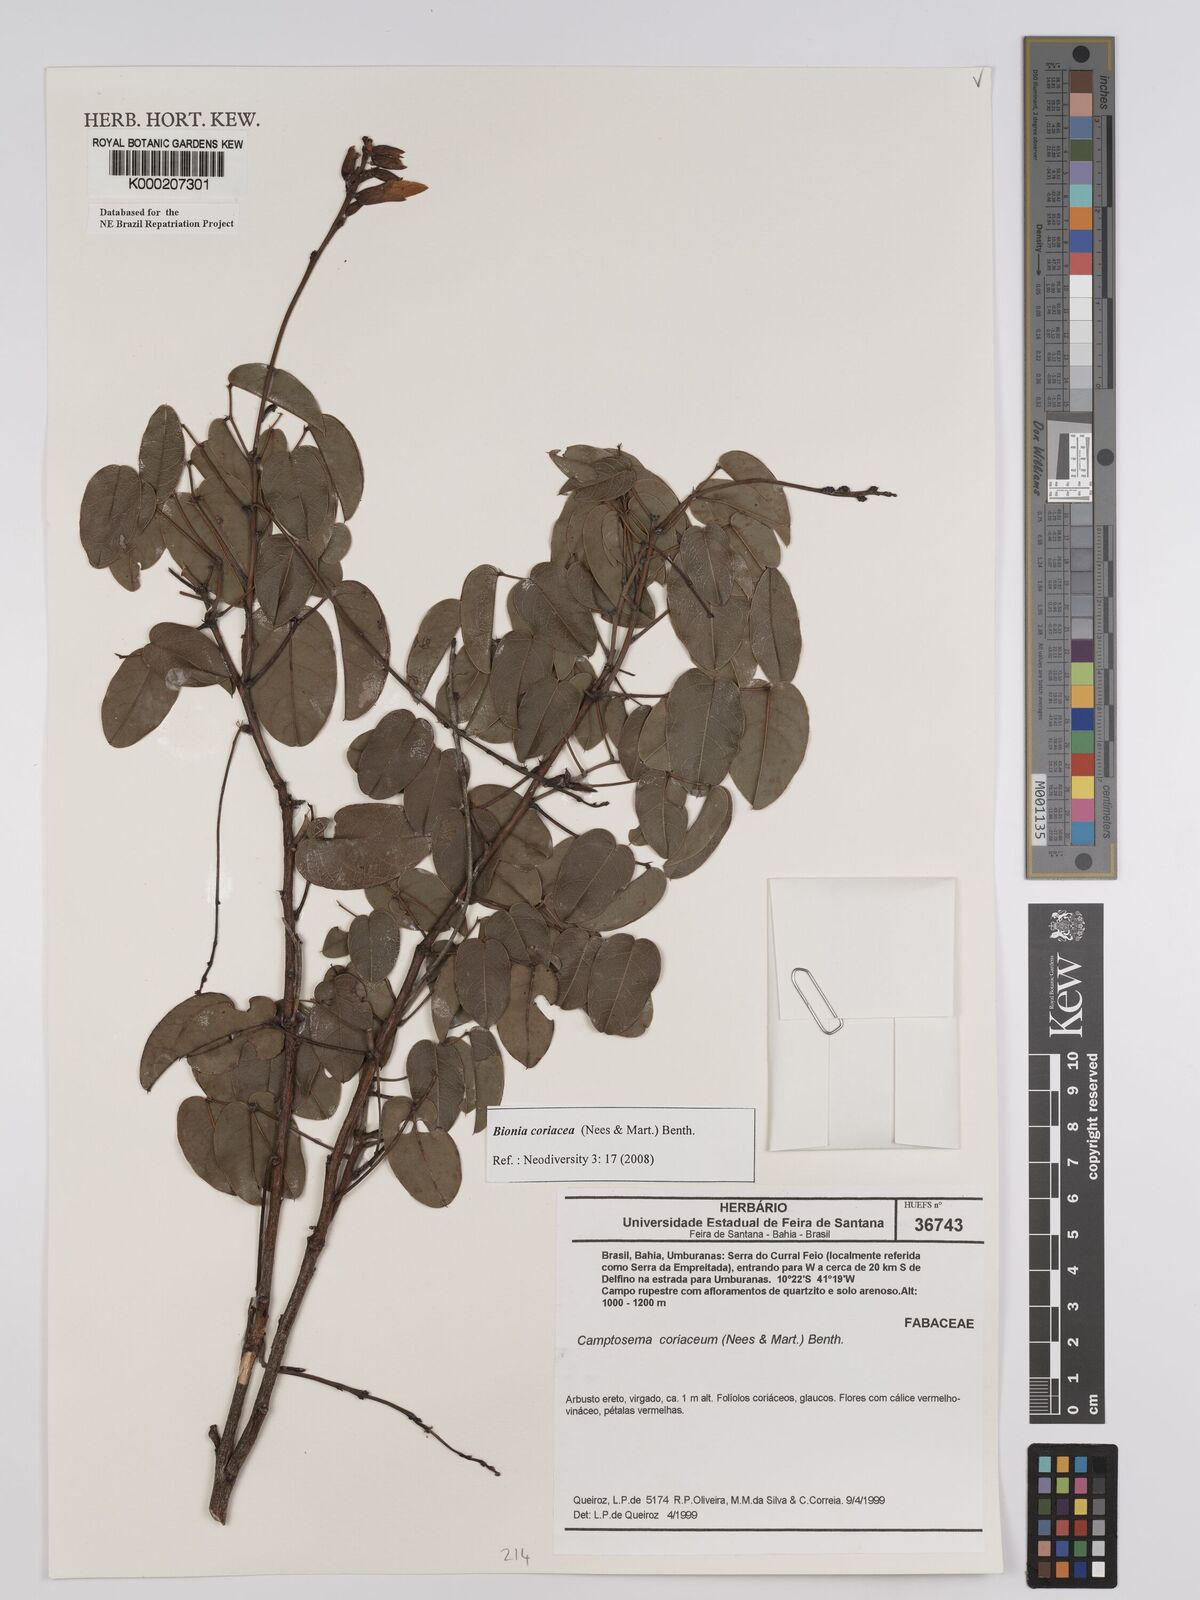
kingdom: Plantae
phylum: Tracheophyta
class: Magnoliopsida
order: Fabales
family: Fabaceae
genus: Camptosema
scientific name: Camptosema coriaceum
